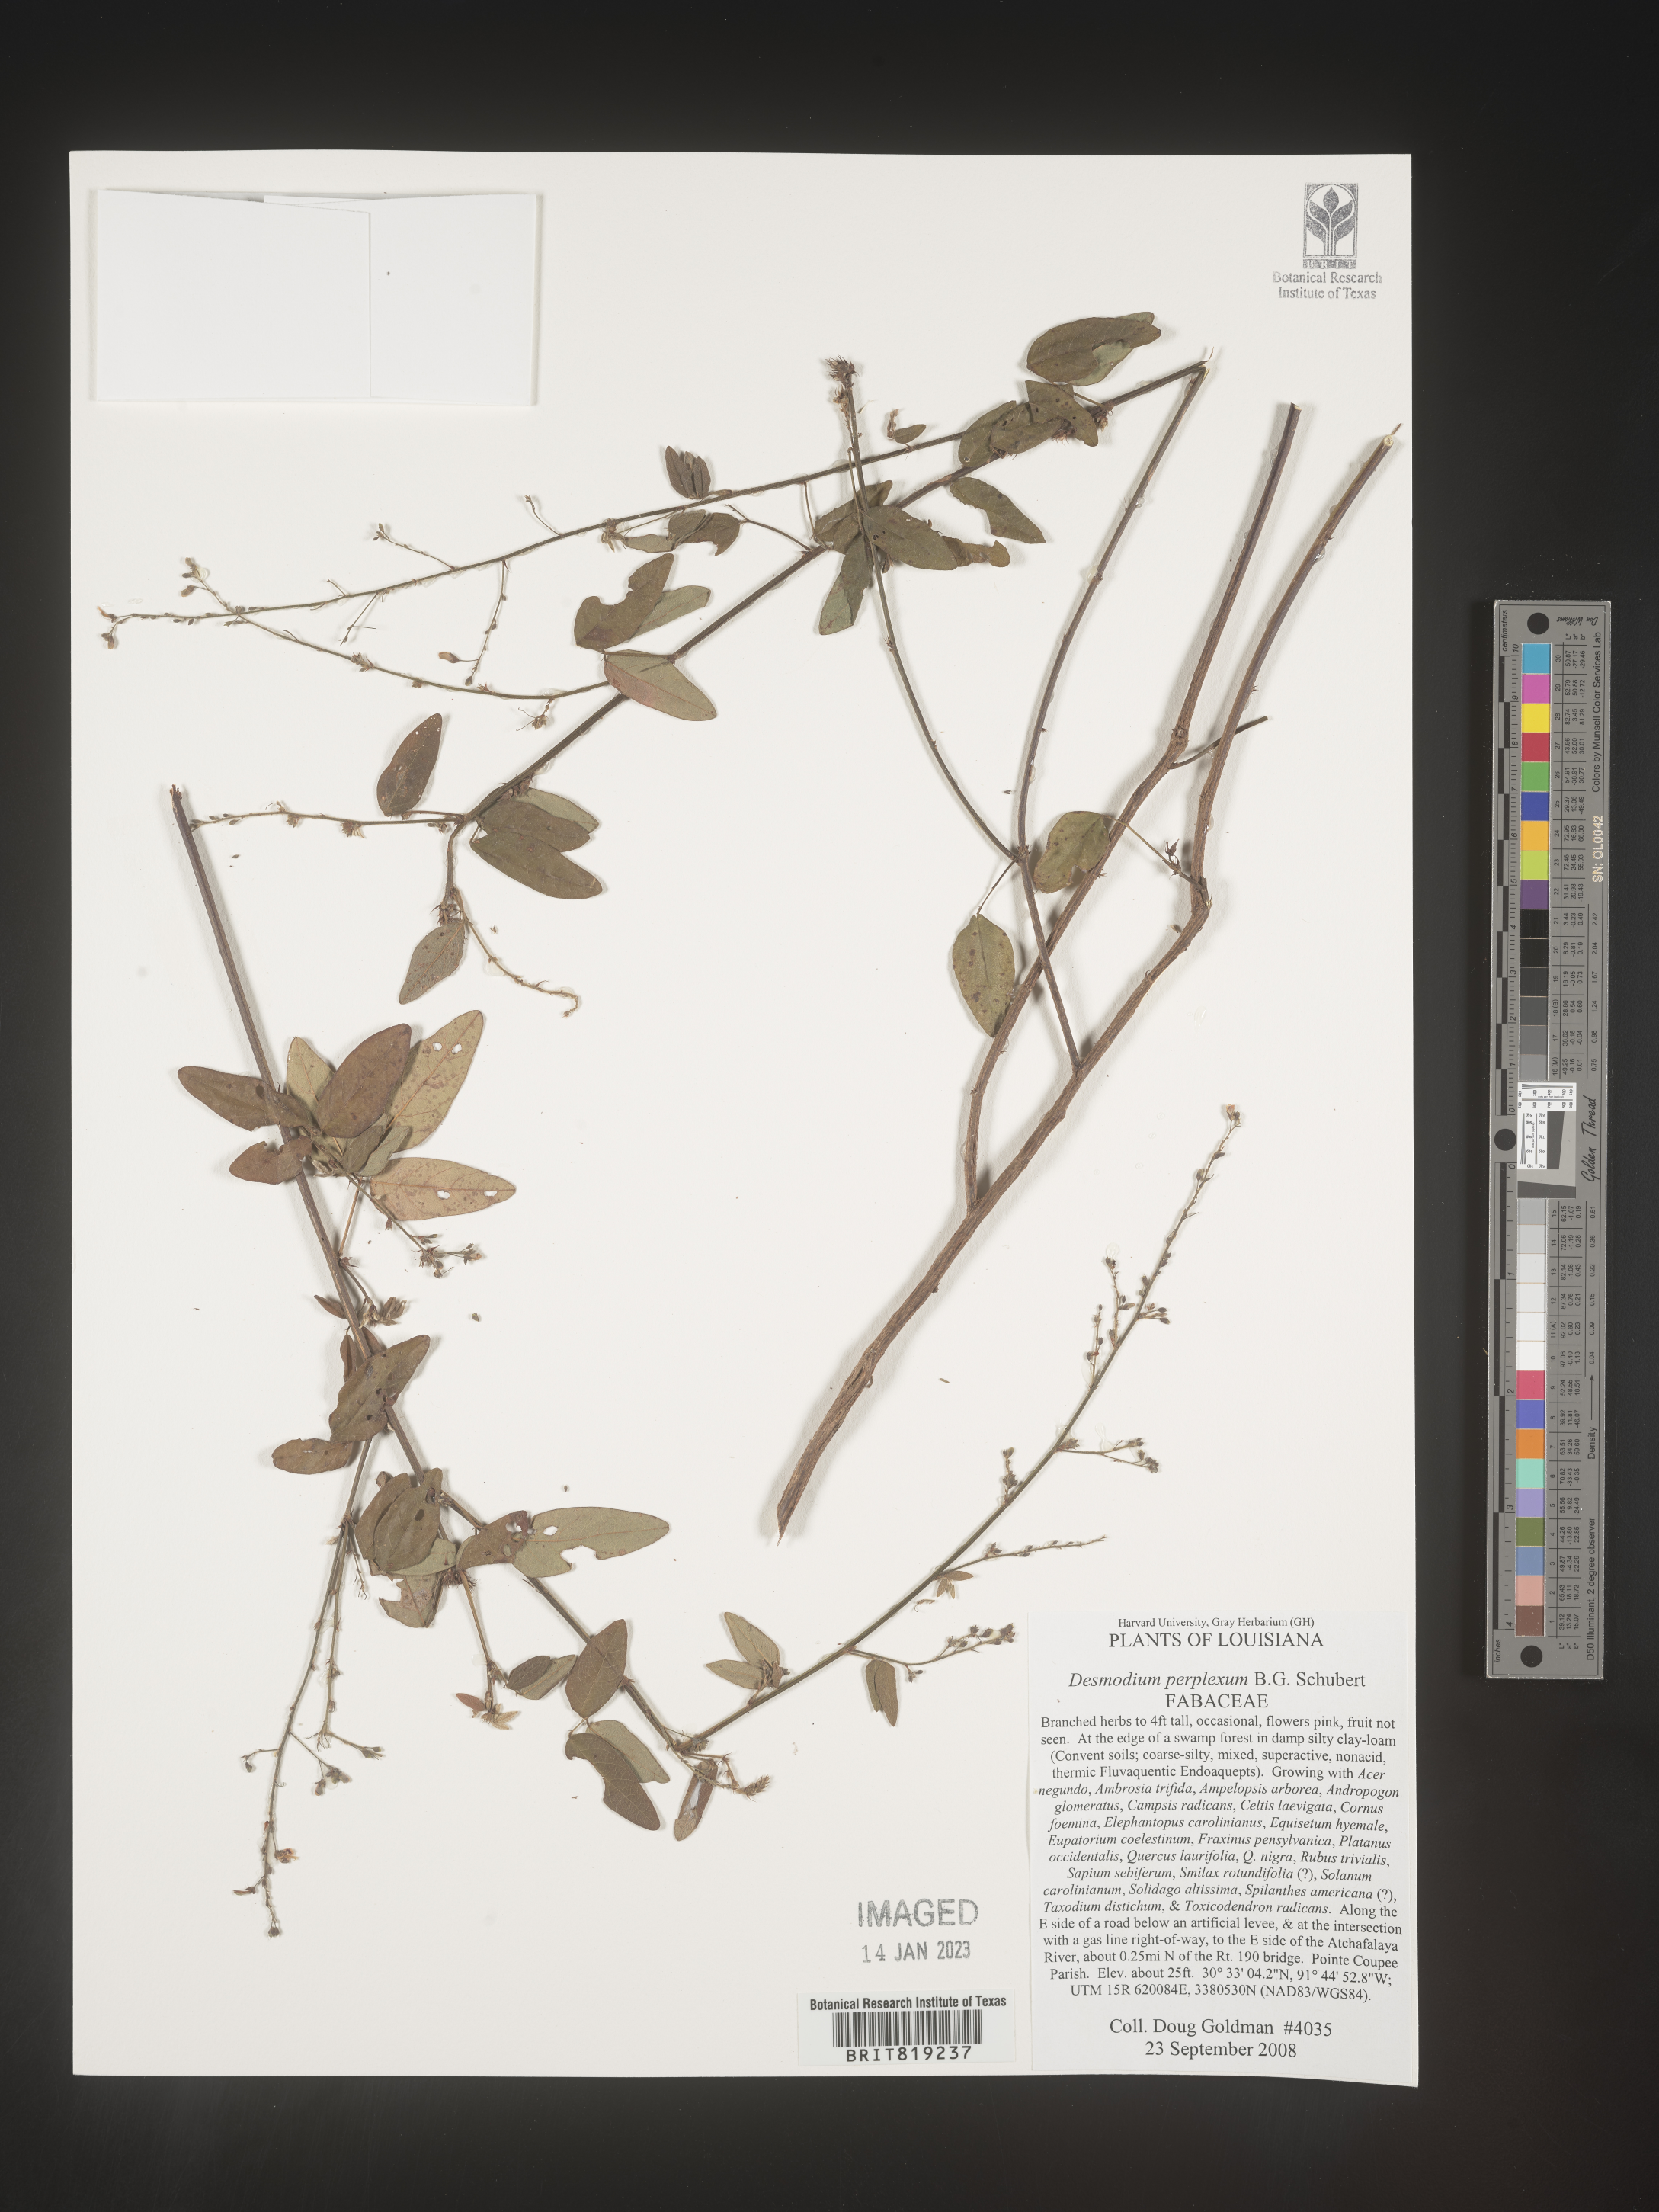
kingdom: Plantae
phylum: Tracheophyta
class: Magnoliopsida
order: Fabales
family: Fabaceae
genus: Desmodium
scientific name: Desmodium perplexum
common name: Perplexed tick trefoil
